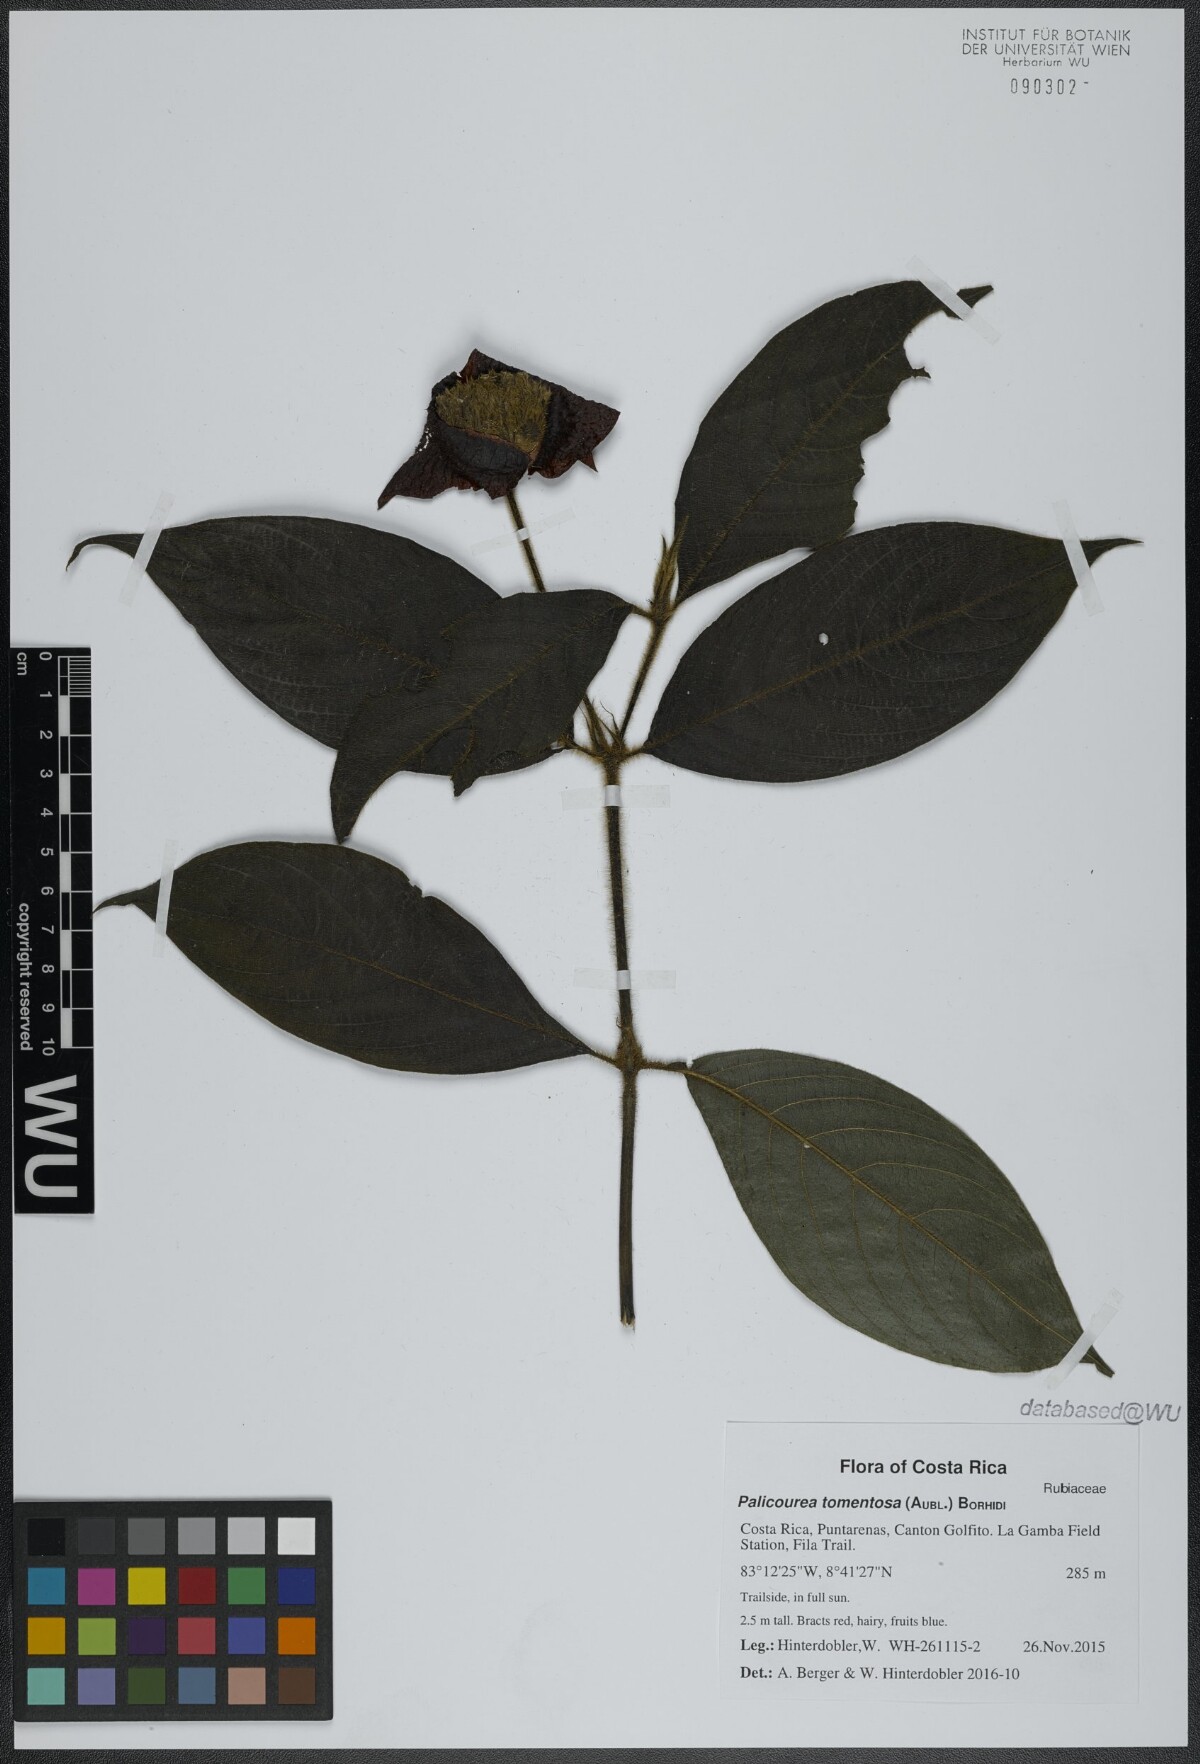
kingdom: Plantae
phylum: Tracheophyta
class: Magnoliopsida
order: Gentianales
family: Rubiaceae
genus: Palicourea
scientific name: Palicourea tomentosa
